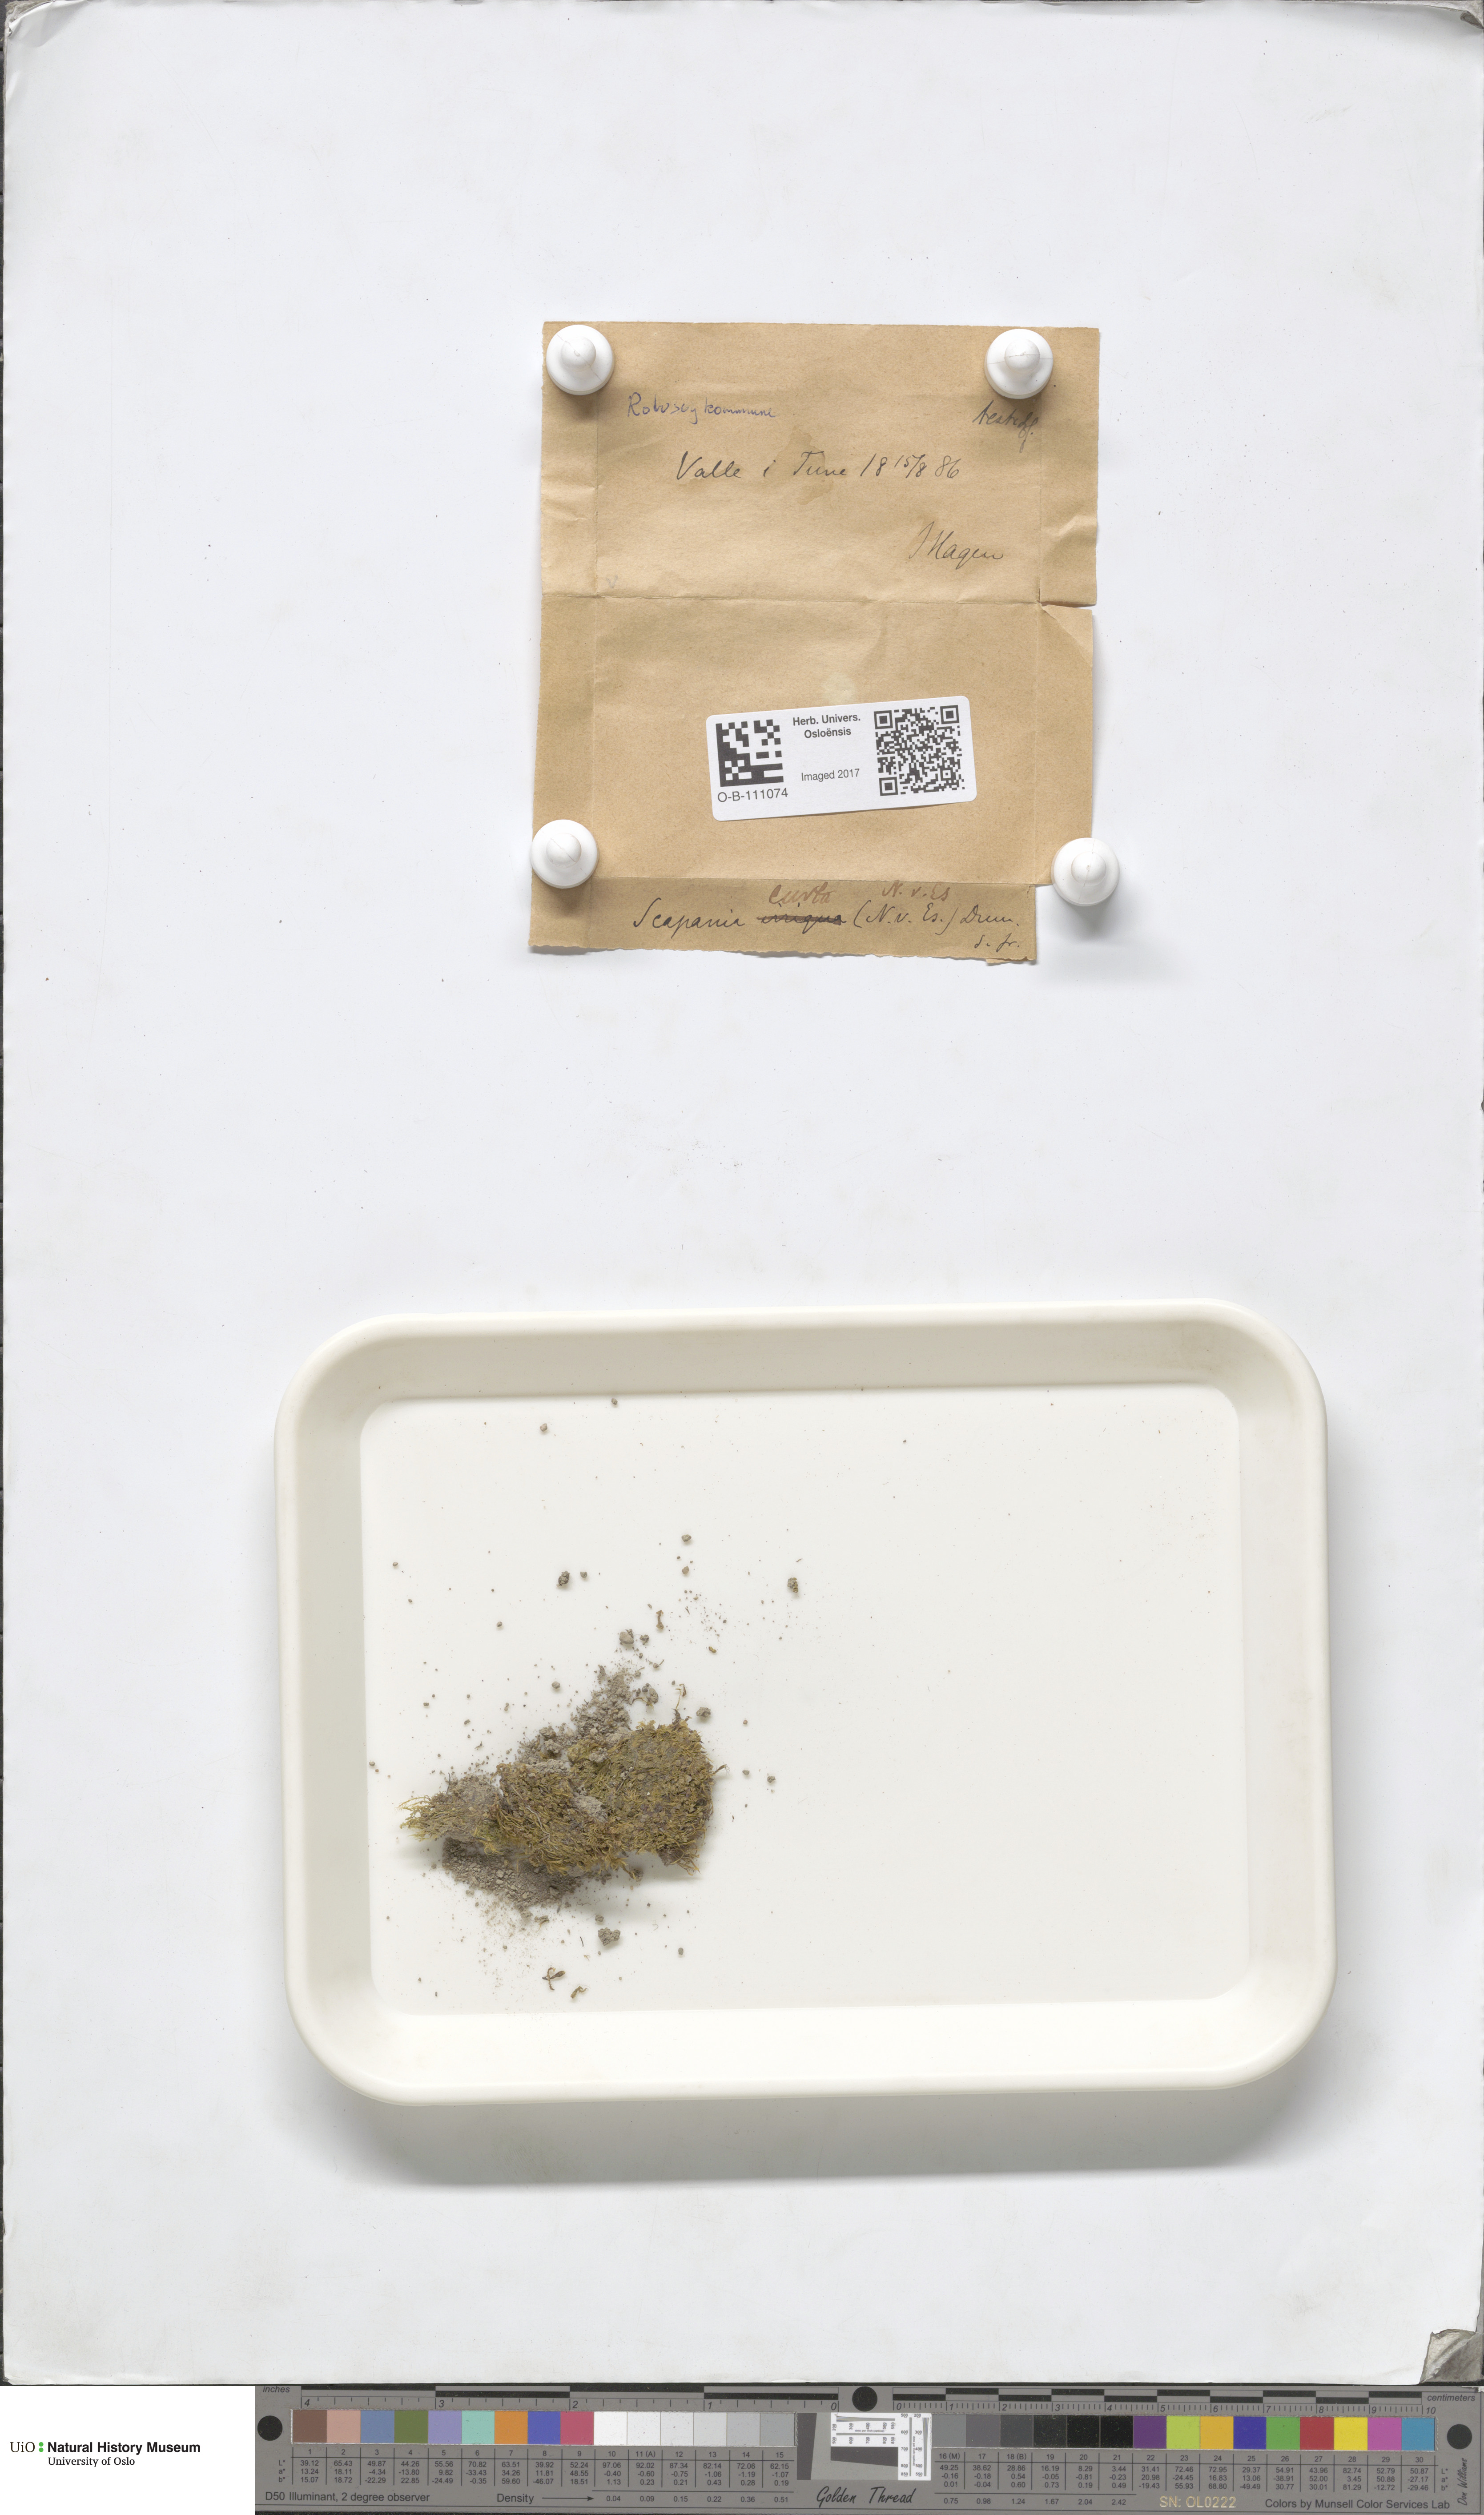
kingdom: Plantae
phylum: Marchantiophyta
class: Jungermanniopsida
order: Jungermanniales
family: Scapaniaceae
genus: Scapania
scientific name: Scapania curta
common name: Least earwort
